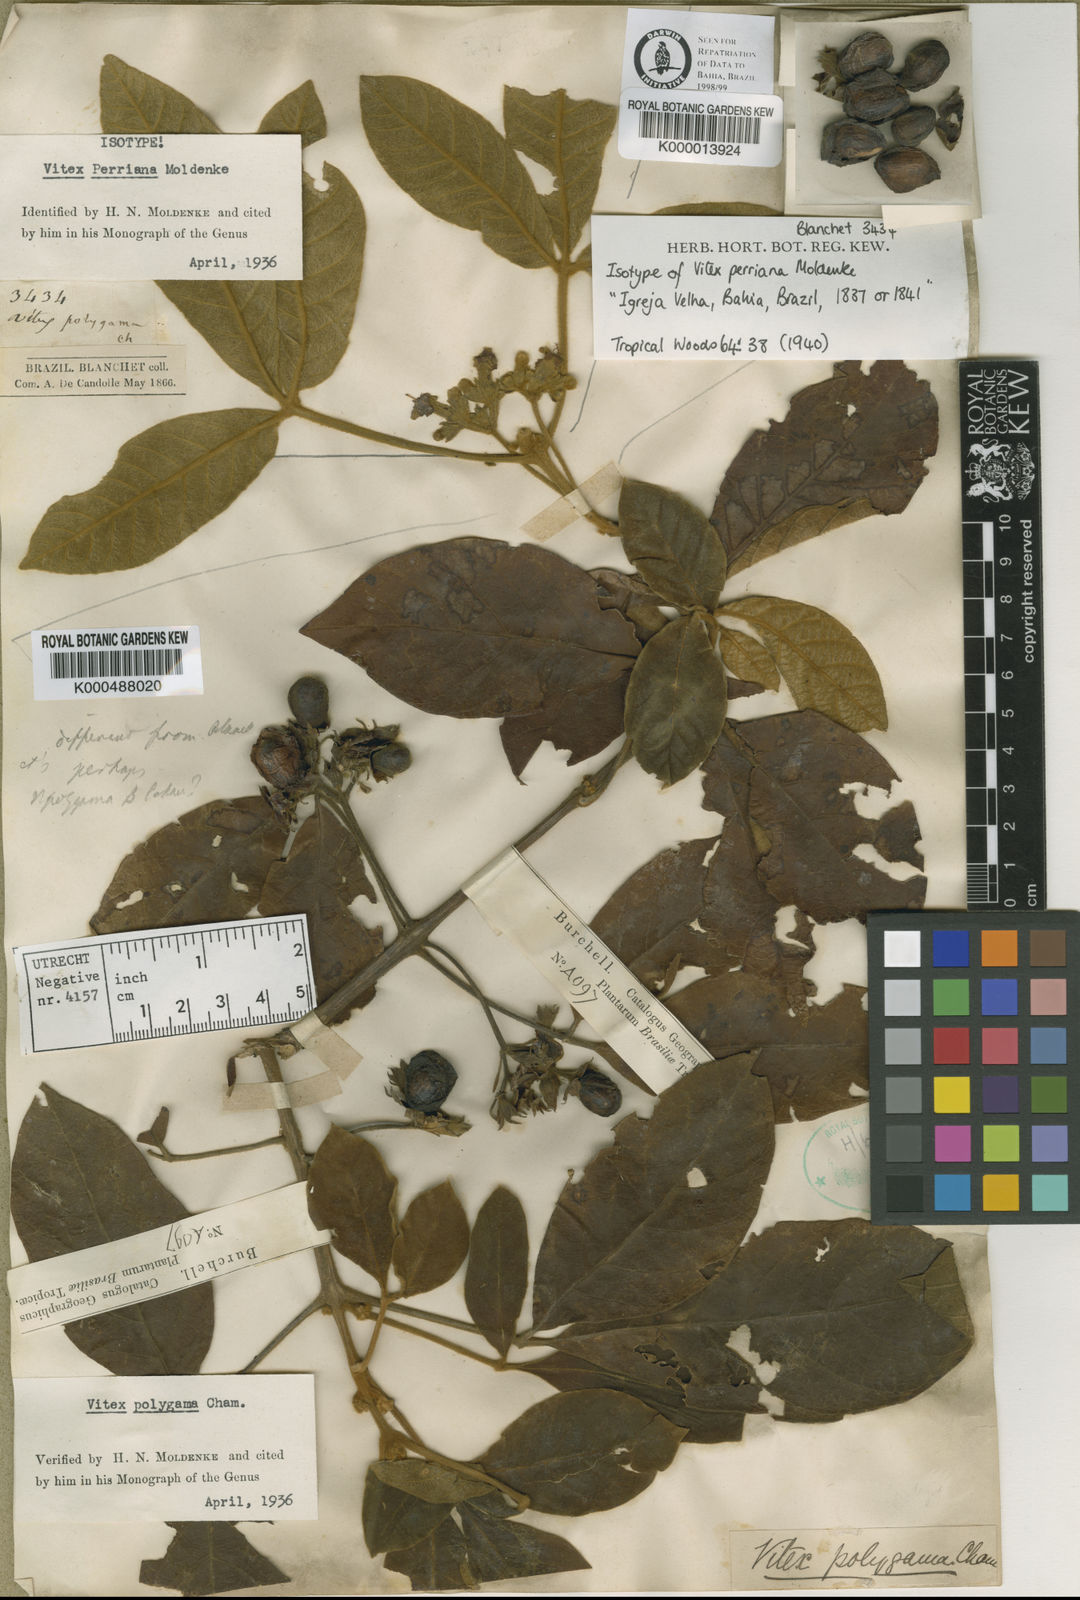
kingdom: Plantae
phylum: Tracheophyta
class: Magnoliopsida
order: Lamiales
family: Lamiaceae
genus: Vitex
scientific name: Vitex rufescens
